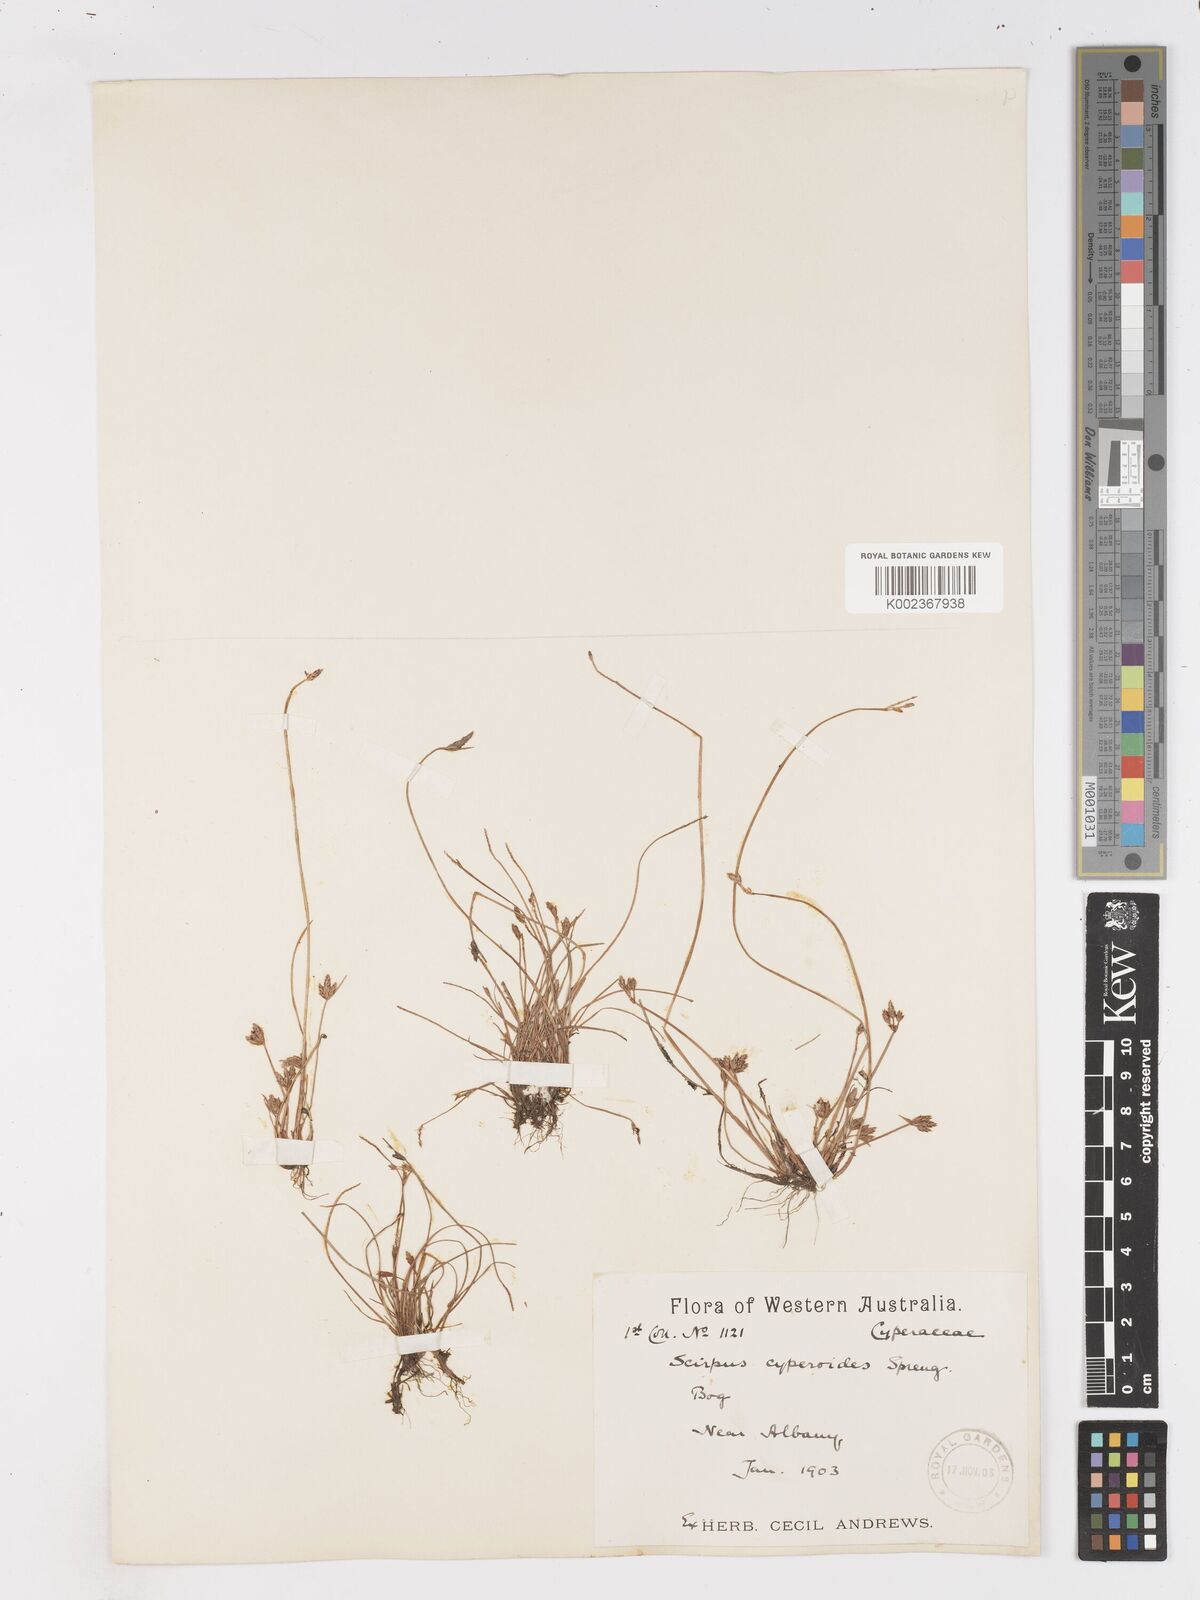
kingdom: Plantae
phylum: Tracheophyta
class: Liliopsida
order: Poales
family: Cyperaceae
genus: Isolepis
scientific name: Isolepis cyperoides
